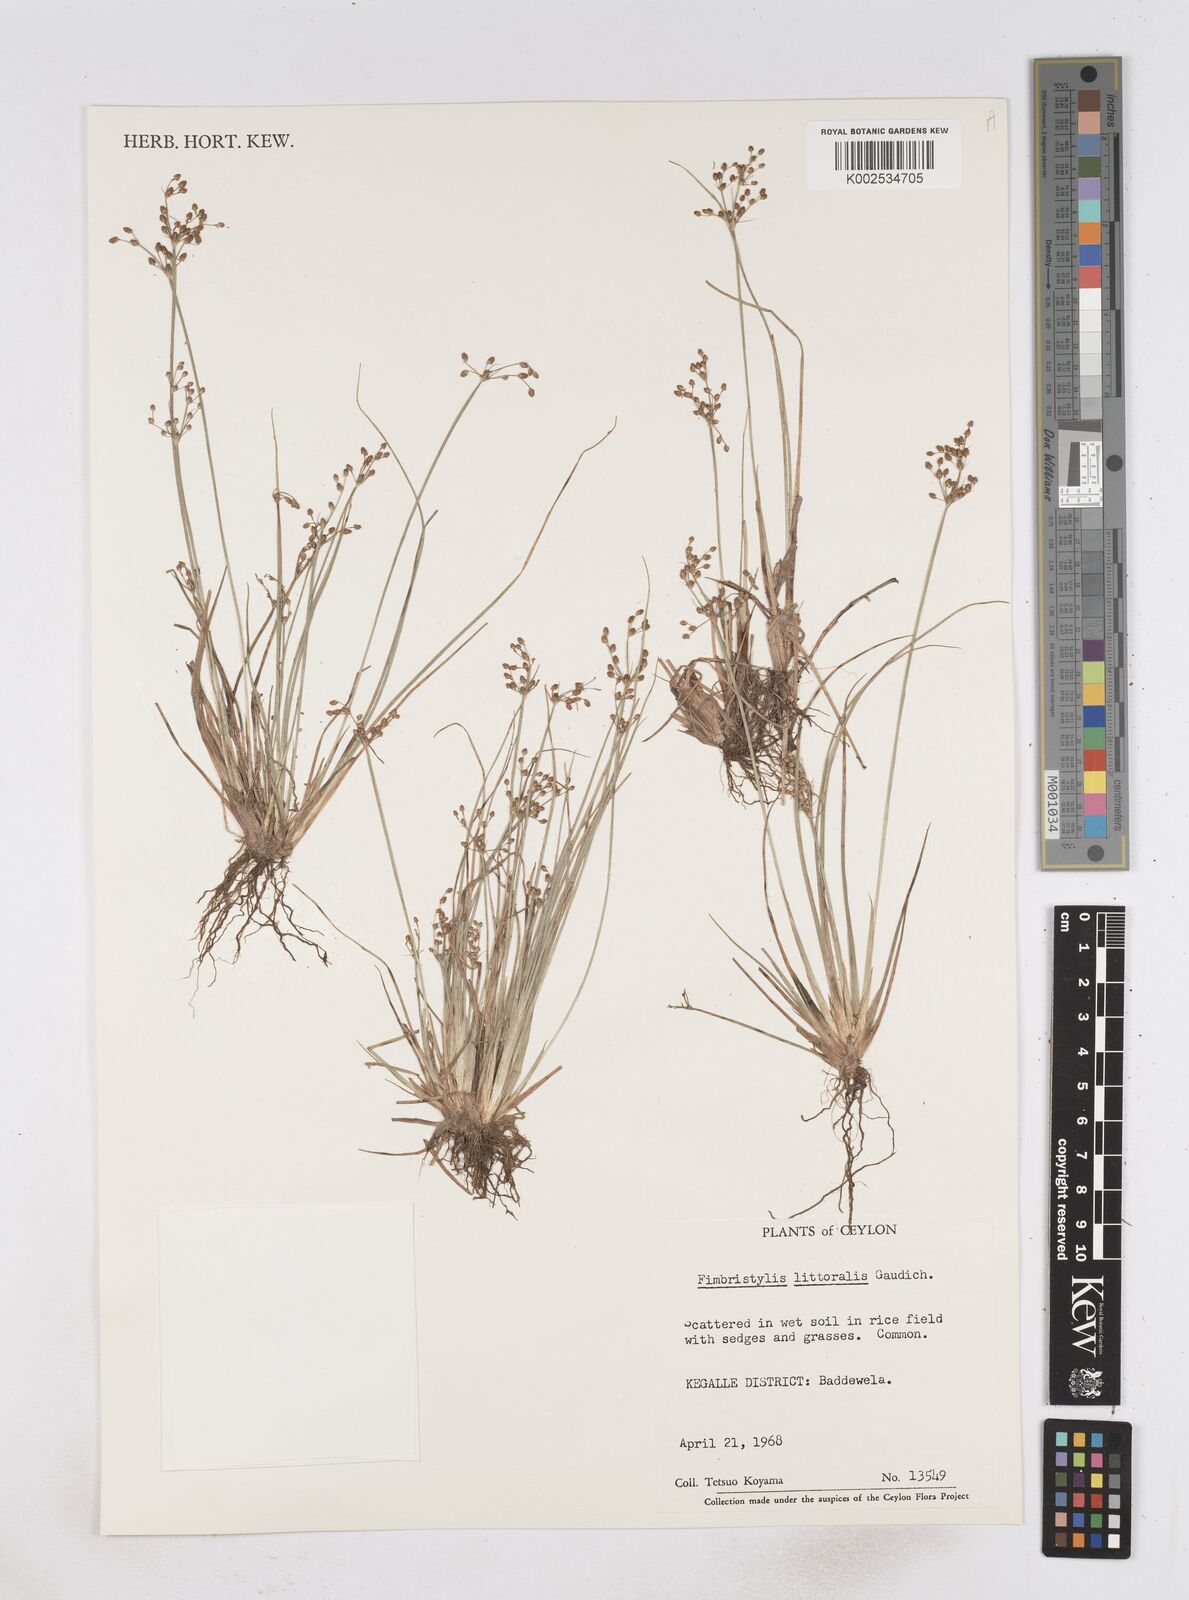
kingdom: Plantae
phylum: Tracheophyta
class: Liliopsida
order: Poales
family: Cyperaceae
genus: Fimbristylis
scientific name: Fimbristylis littoralis
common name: Fimbry
